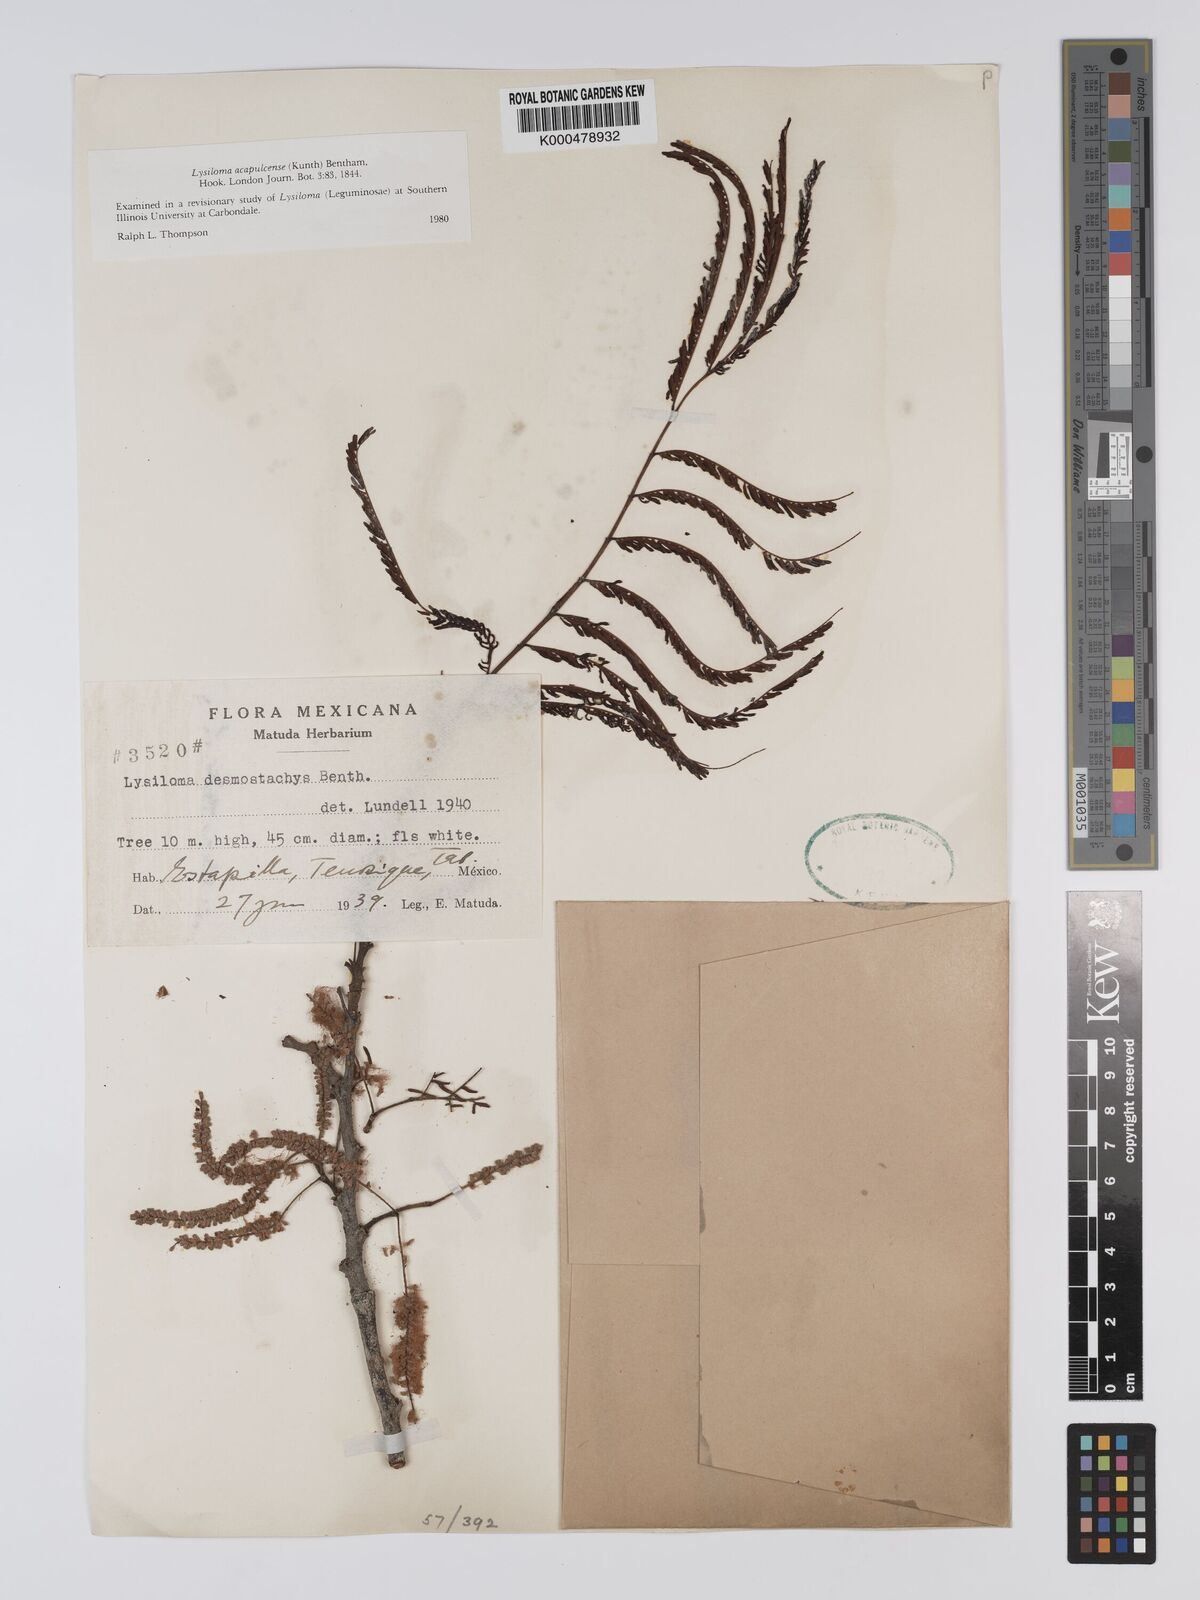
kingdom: Plantae
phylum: Tracheophyta
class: Magnoliopsida
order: Fabales
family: Fabaceae
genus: Lysiloma
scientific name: Lysiloma
